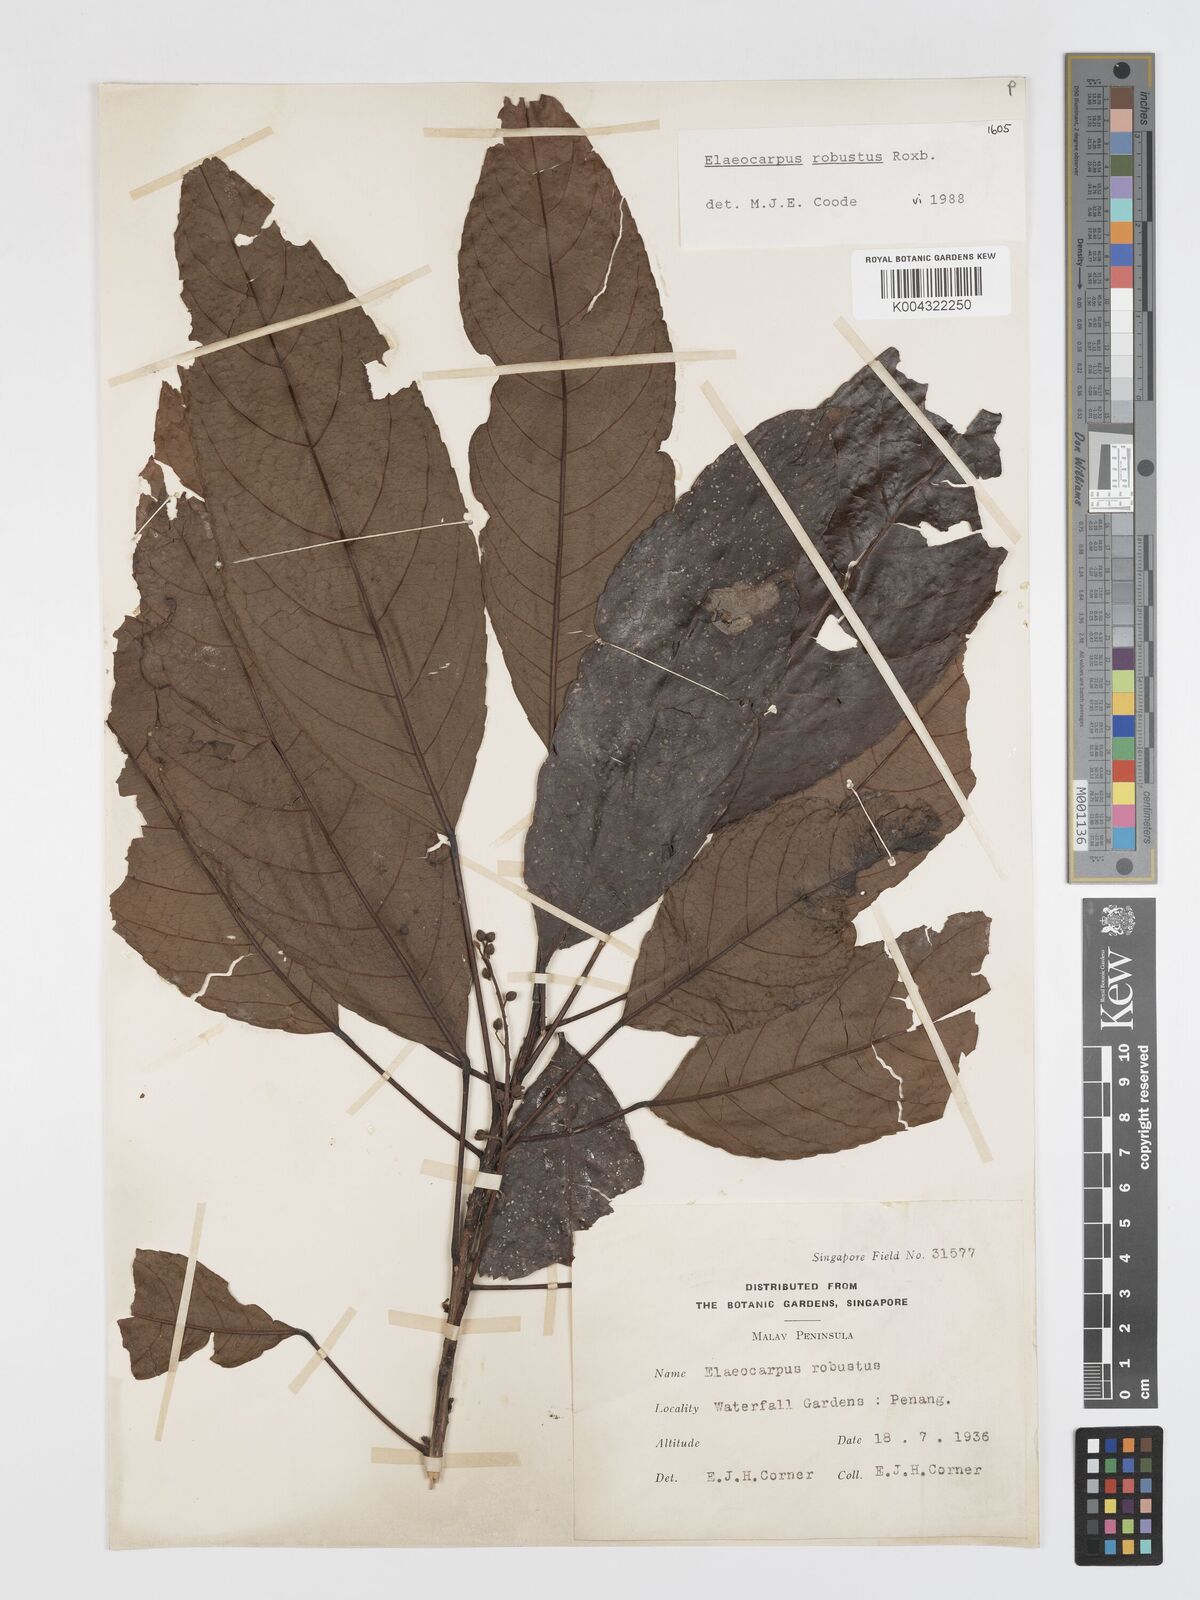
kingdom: Plantae
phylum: Tracheophyta
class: Magnoliopsida
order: Oxalidales
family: Elaeocarpaceae
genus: Elaeocarpus
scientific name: Elaeocarpus robustus
